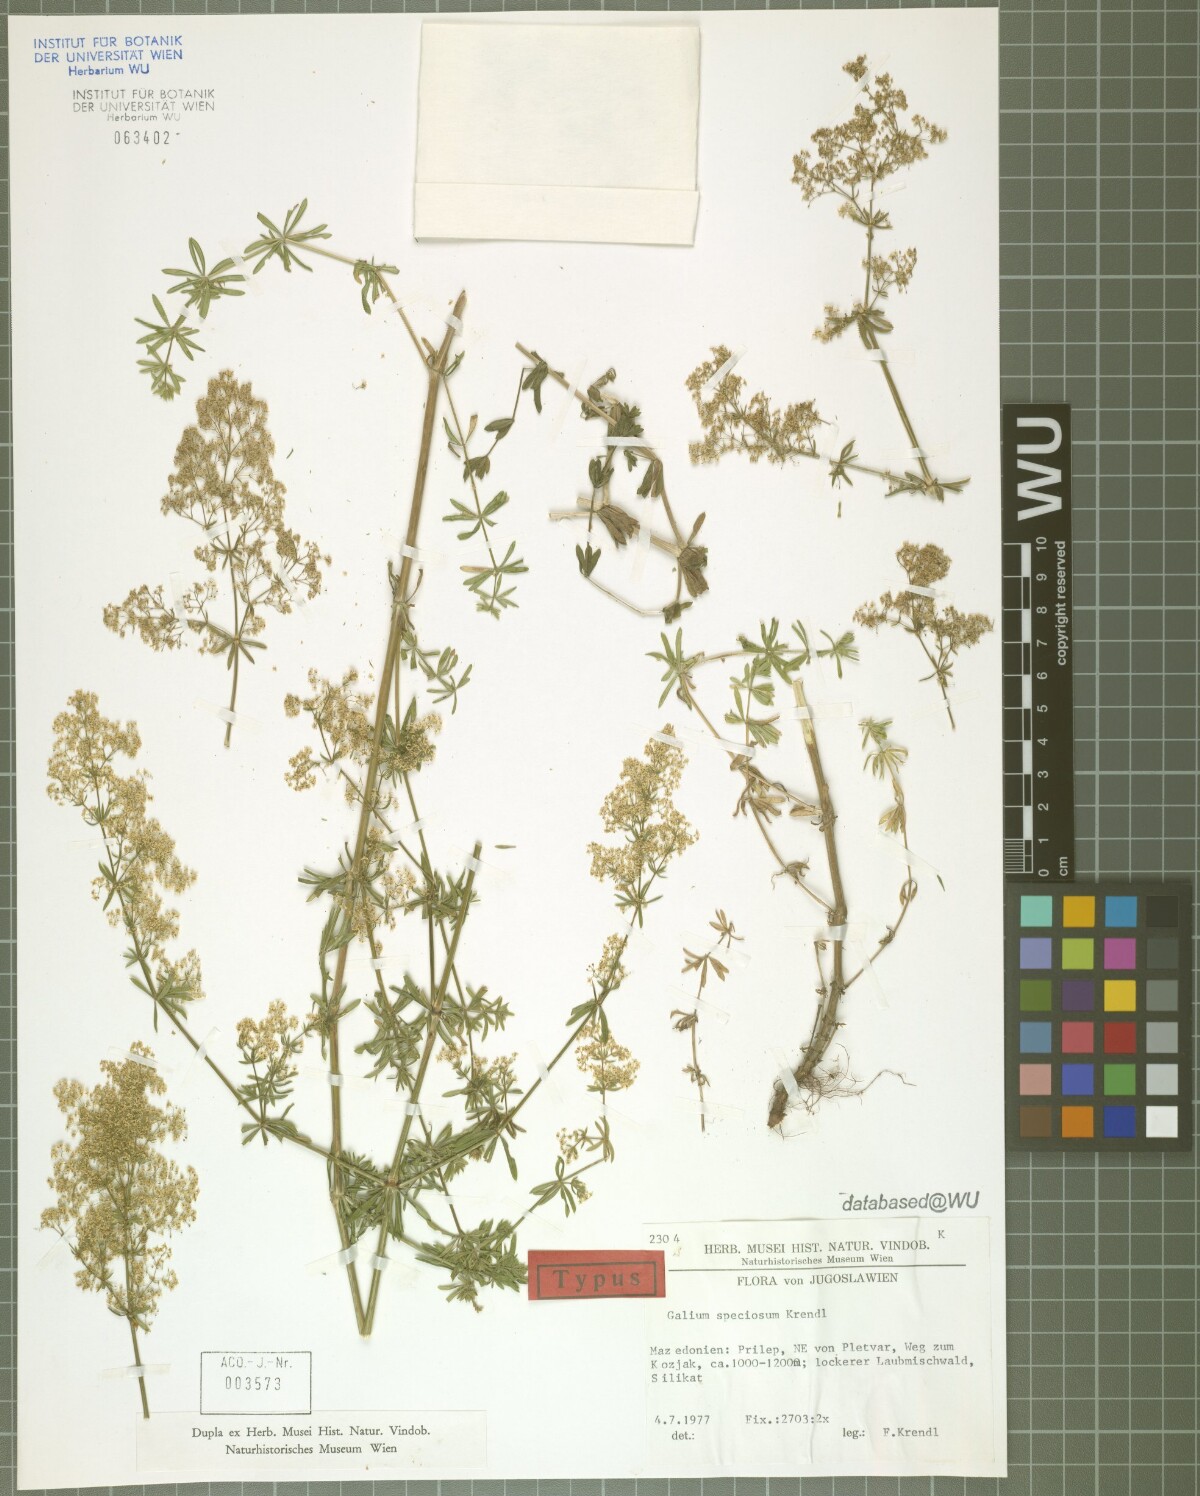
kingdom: Plantae
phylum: Tracheophyta
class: Magnoliopsida
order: Gentianales
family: Rubiaceae
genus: Galium
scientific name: Galium speciosum
